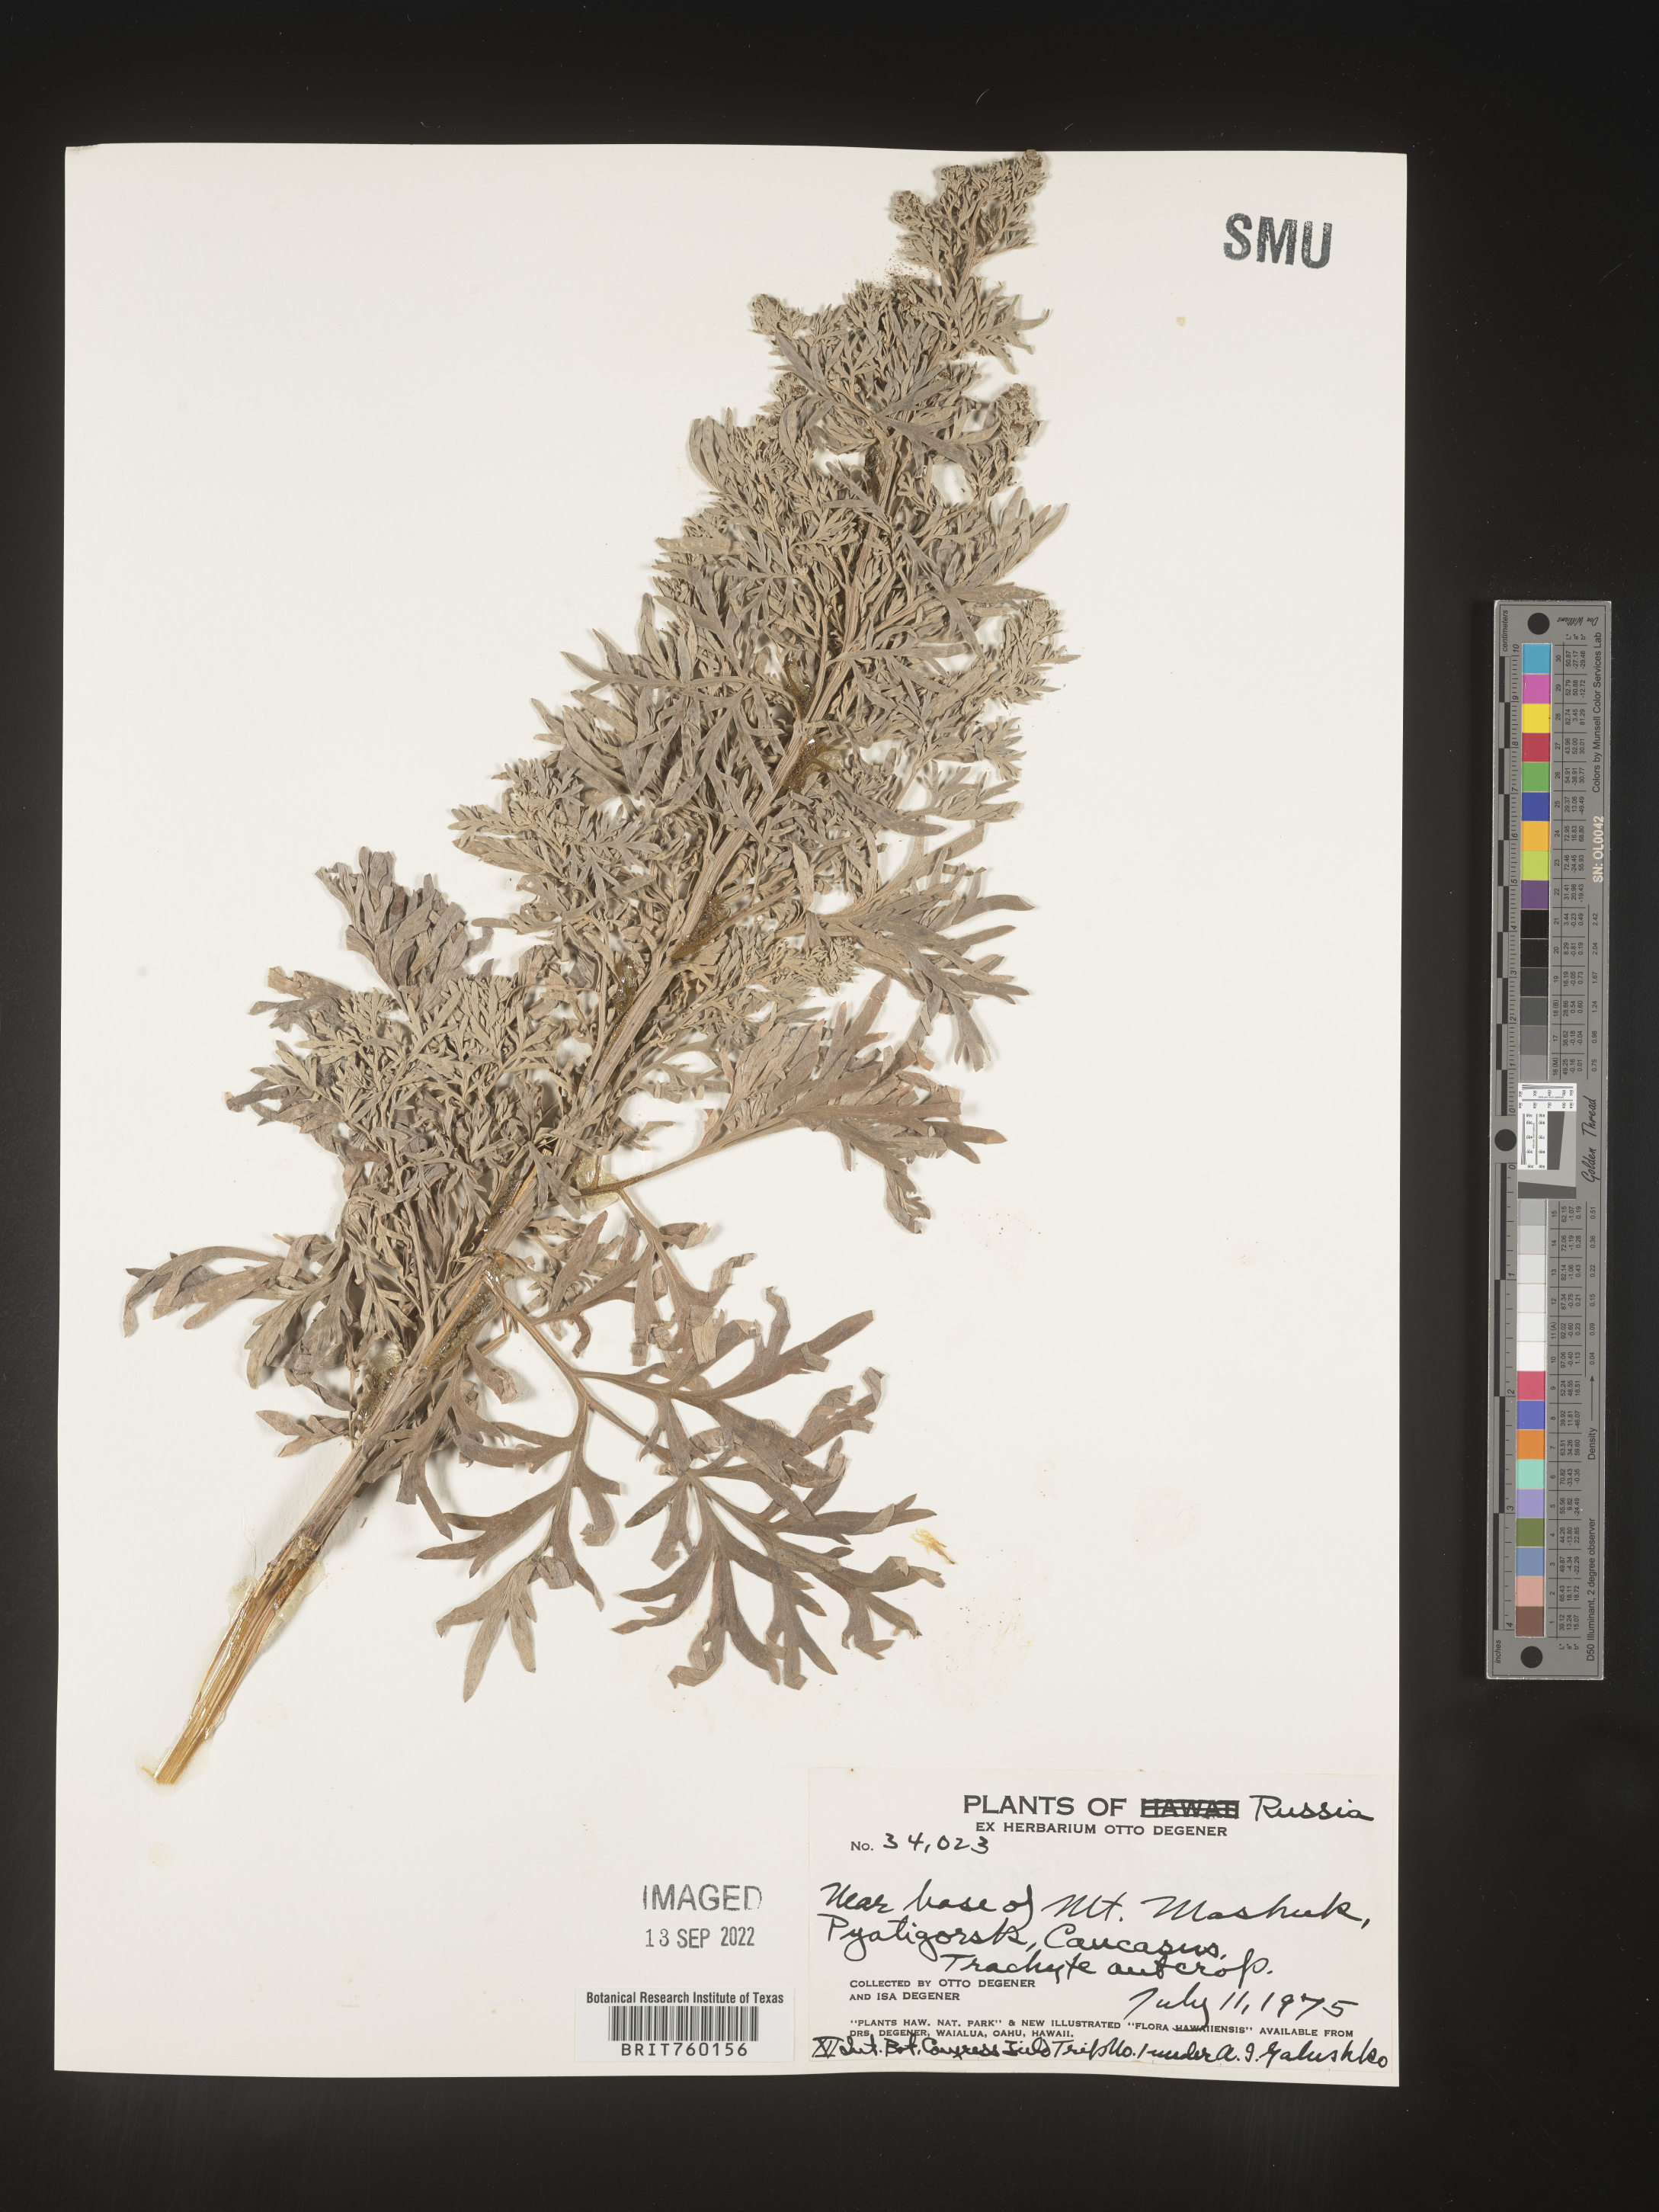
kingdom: Plantae
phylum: Tracheophyta
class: Magnoliopsida
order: Asterales
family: Asteraceae
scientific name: Asteraceae
